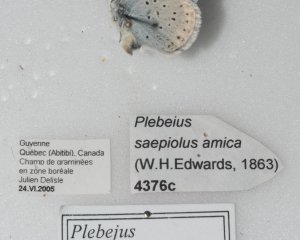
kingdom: Animalia
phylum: Arthropoda
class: Insecta
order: Lepidoptera
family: Lycaenidae
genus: Plebejus
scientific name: Plebejus saepiolus
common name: Greenish Blue
